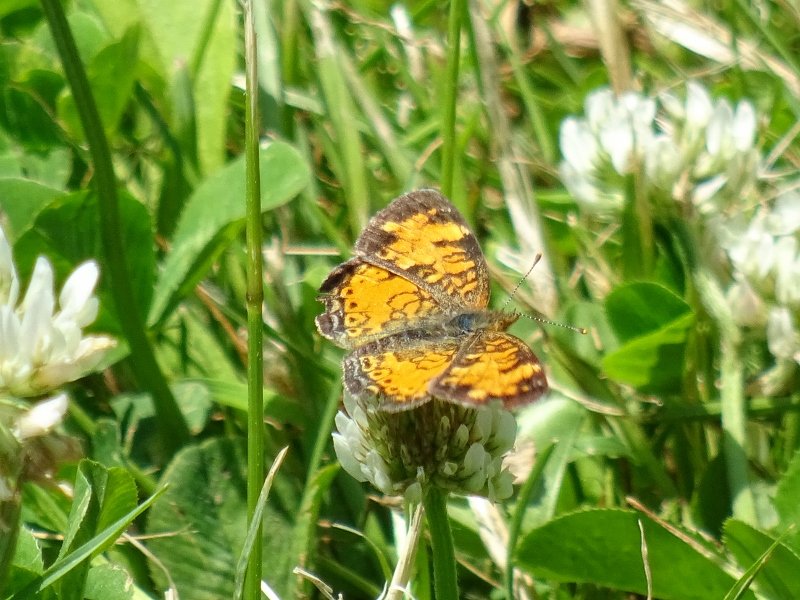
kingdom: Animalia
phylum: Arthropoda
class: Insecta
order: Lepidoptera
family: Nymphalidae
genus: Phyciodes
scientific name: Phyciodes tharos
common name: Northern Crescent
